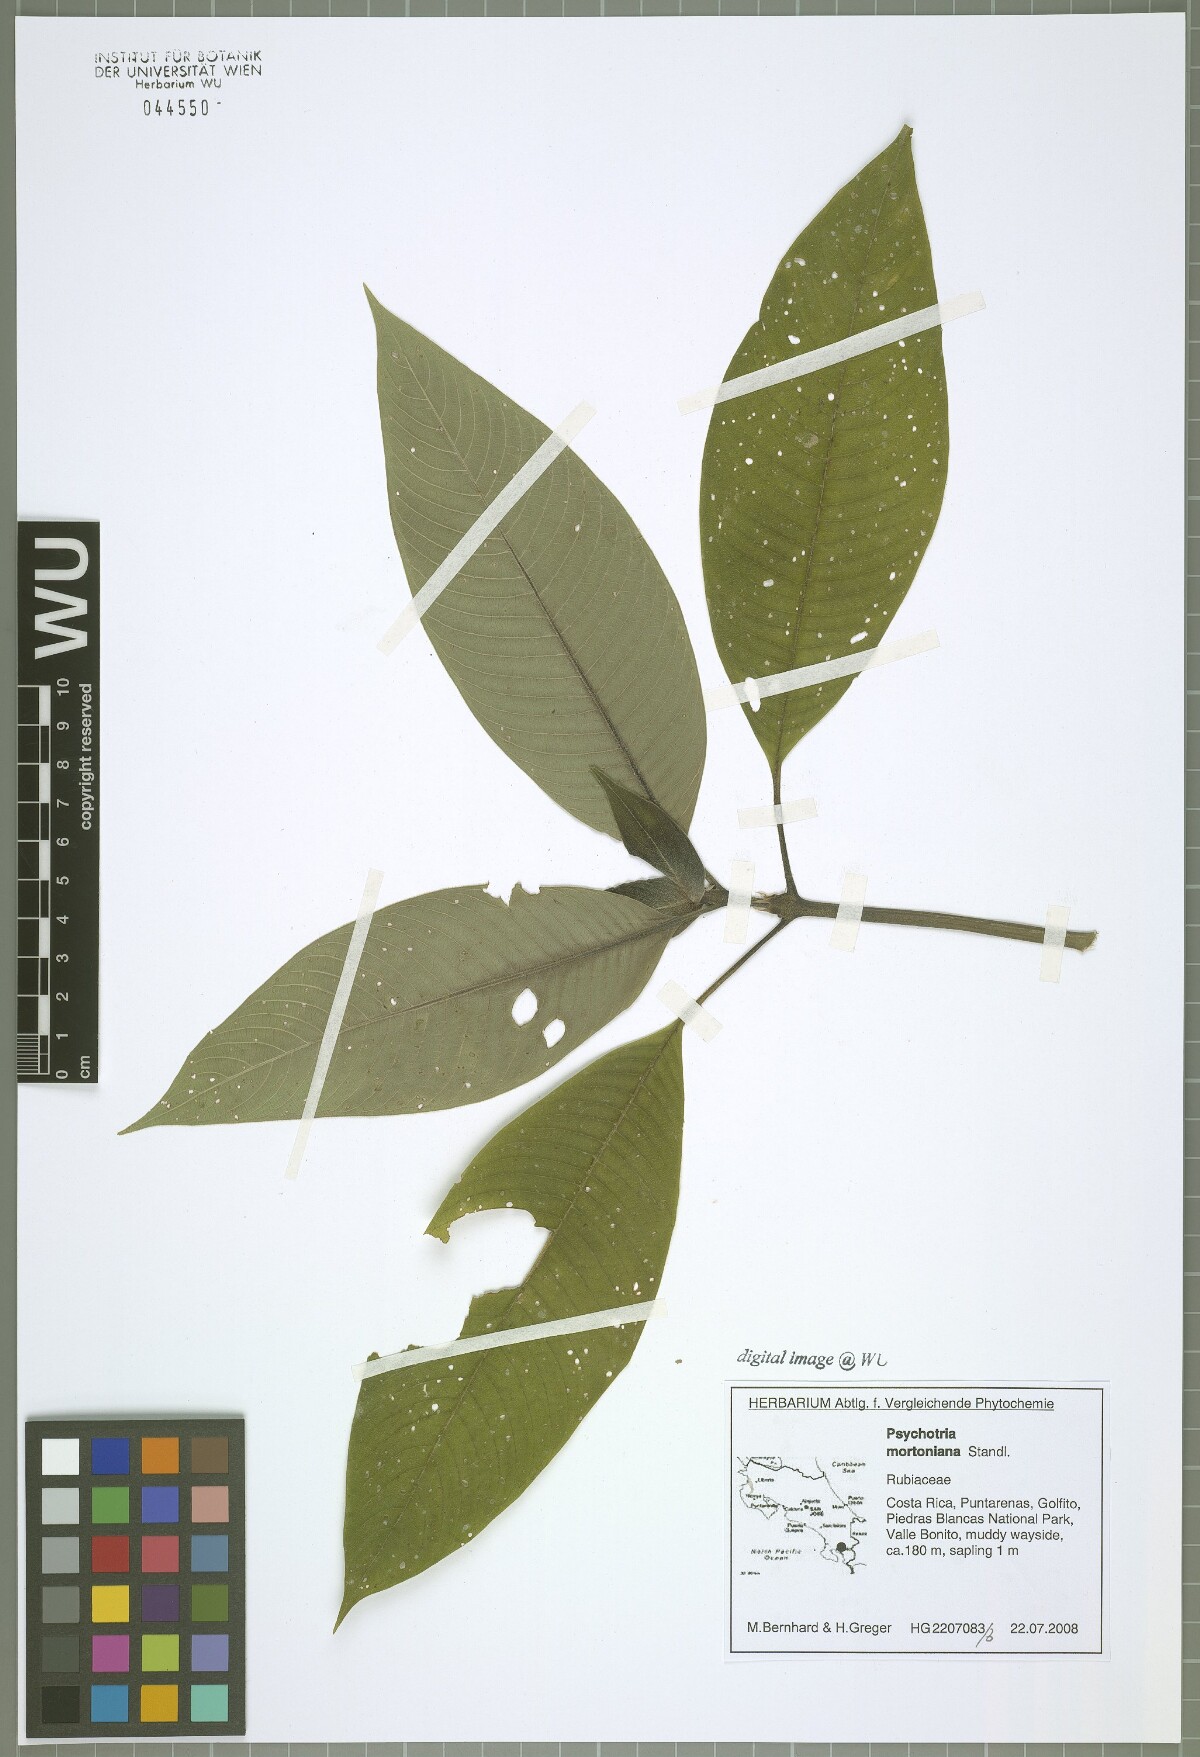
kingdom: Plantae
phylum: Tracheophyta
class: Magnoliopsida
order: Gentianales
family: Rubiaceae
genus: Palicourea
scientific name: Palicourea mortoniana
